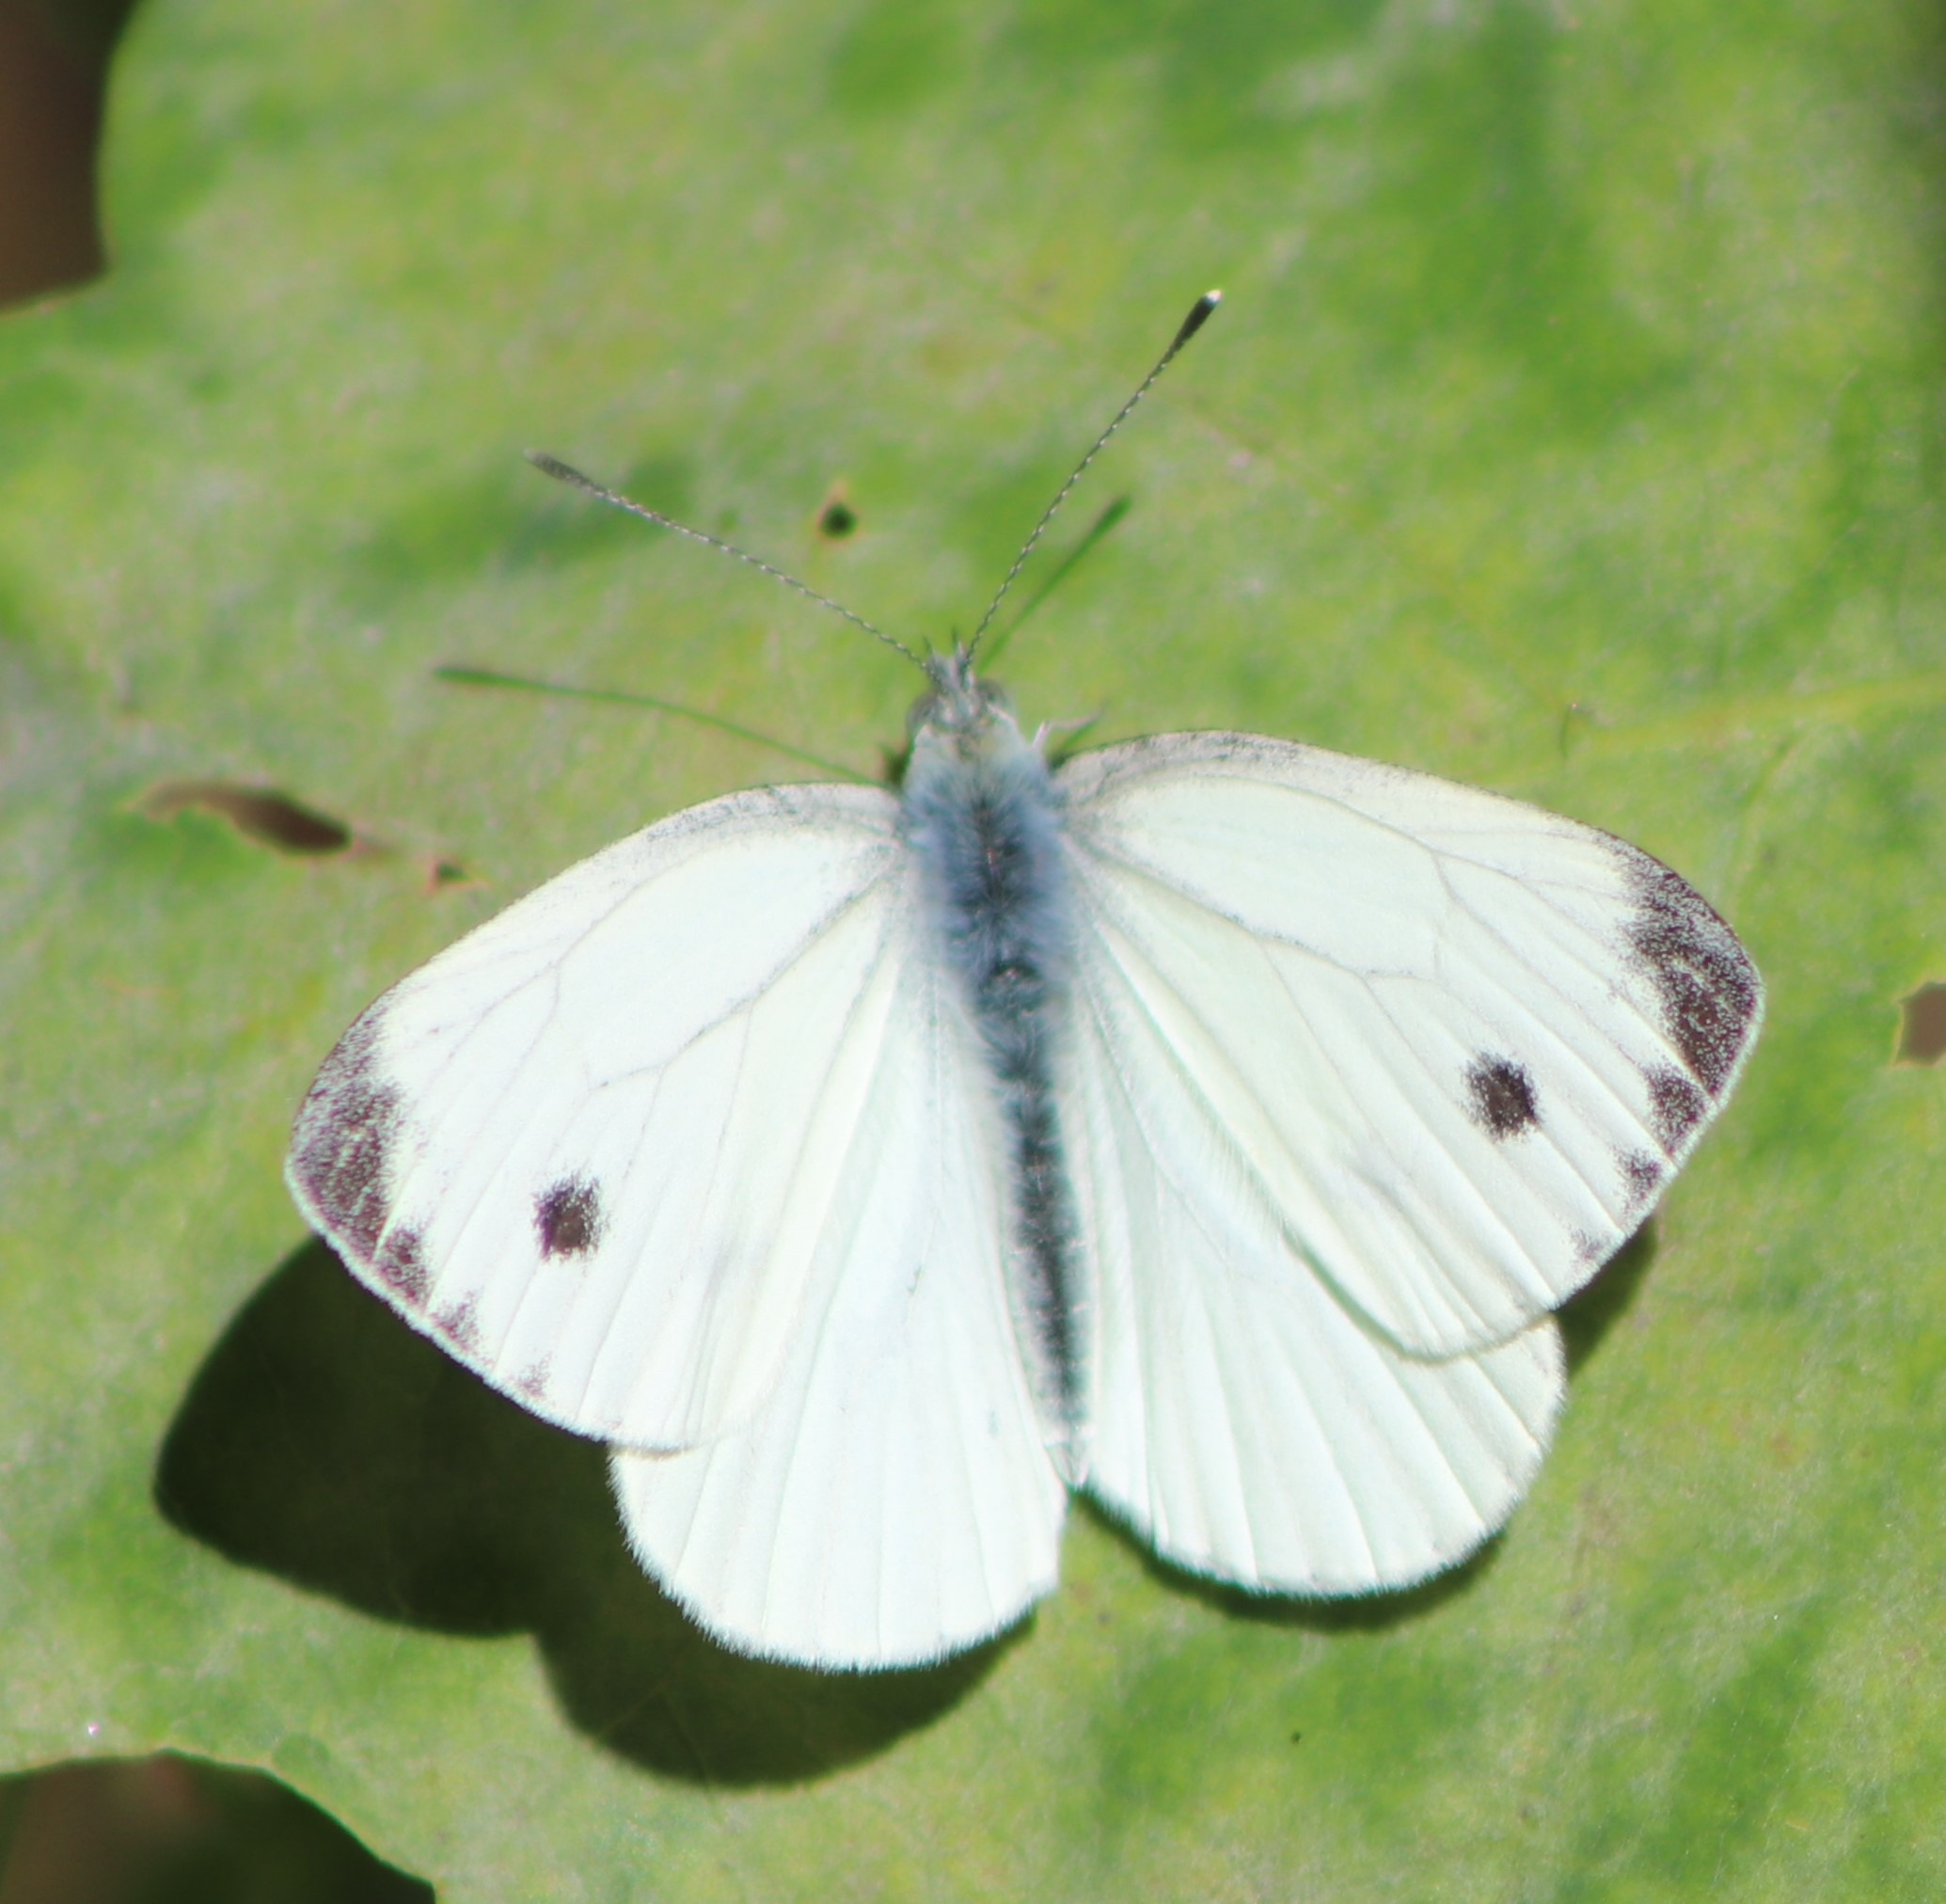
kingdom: Animalia
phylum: Arthropoda
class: Insecta
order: Lepidoptera
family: Pieridae
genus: Pieris
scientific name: Pieris napi
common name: Grønåret kålsommerfugl
